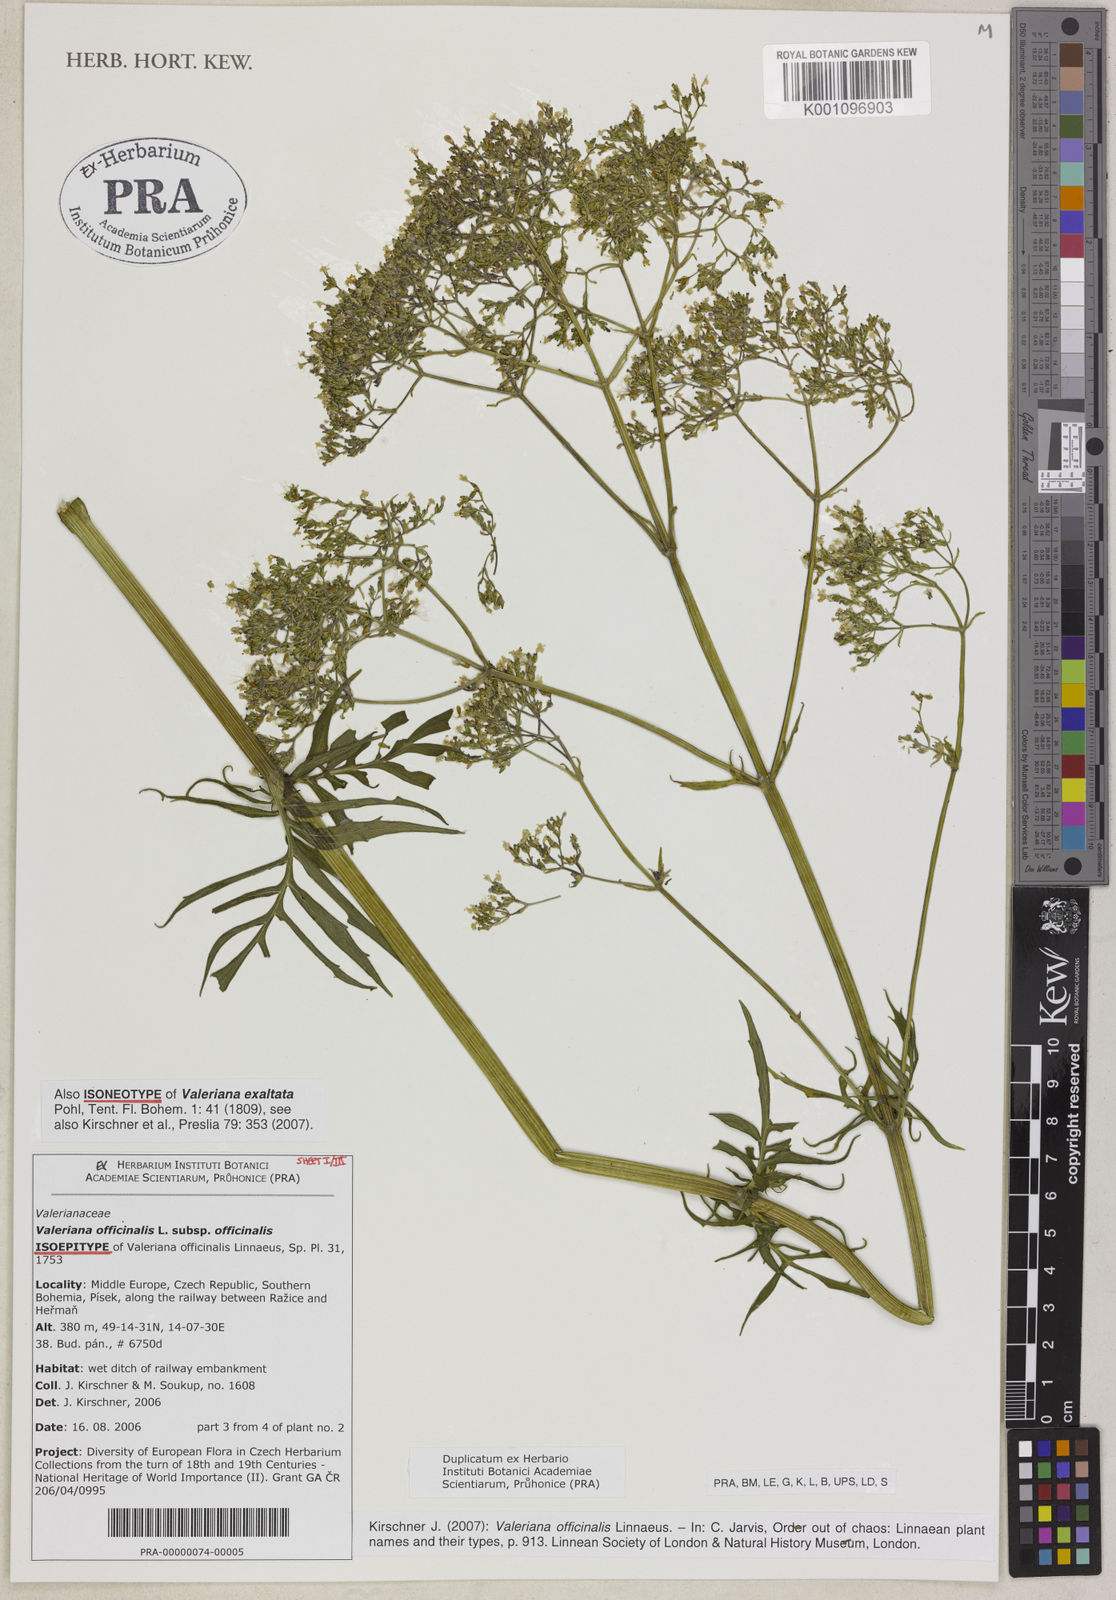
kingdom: Plantae
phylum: Tracheophyta
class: Magnoliopsida
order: Dipsacales
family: Caprifoliaceae
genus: Valeriana
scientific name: Valeriana officinalis
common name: Common valerian
